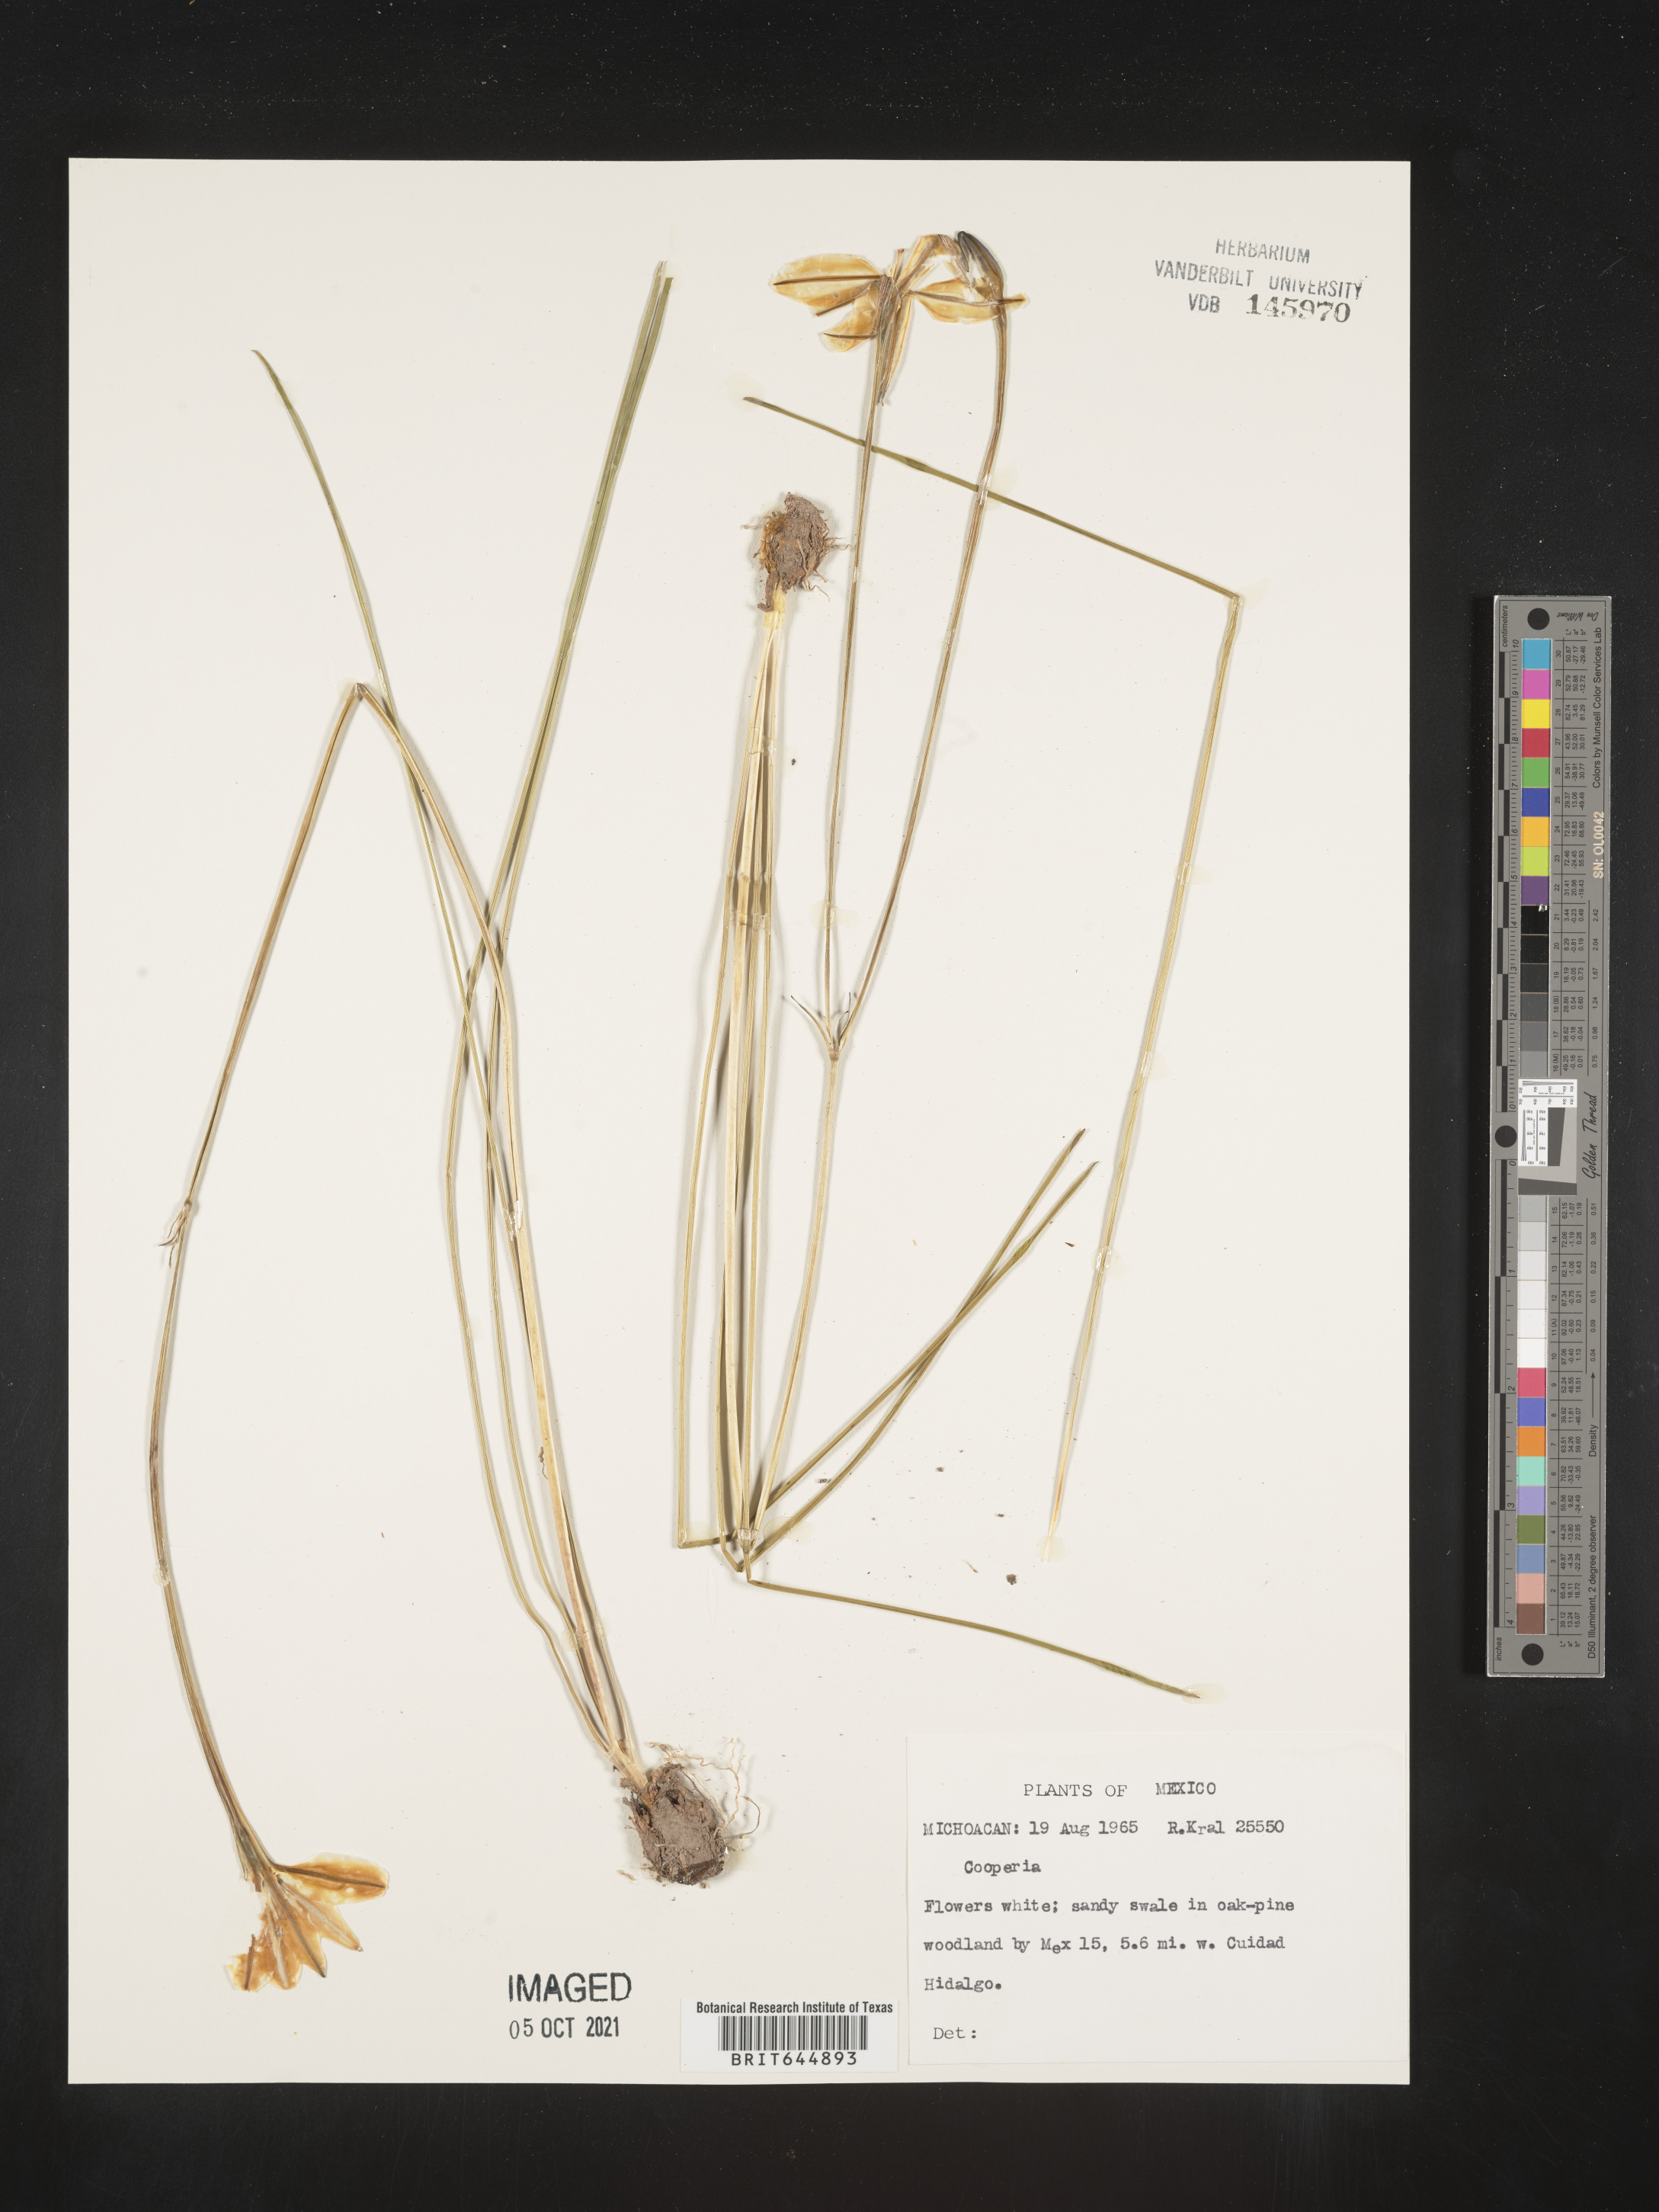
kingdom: Plantae
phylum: Tracheophyta
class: Liliopsida
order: Asparagales
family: Amaryllidaceae
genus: Zephyranthes
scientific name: Zephyranthes Cooperia spec
